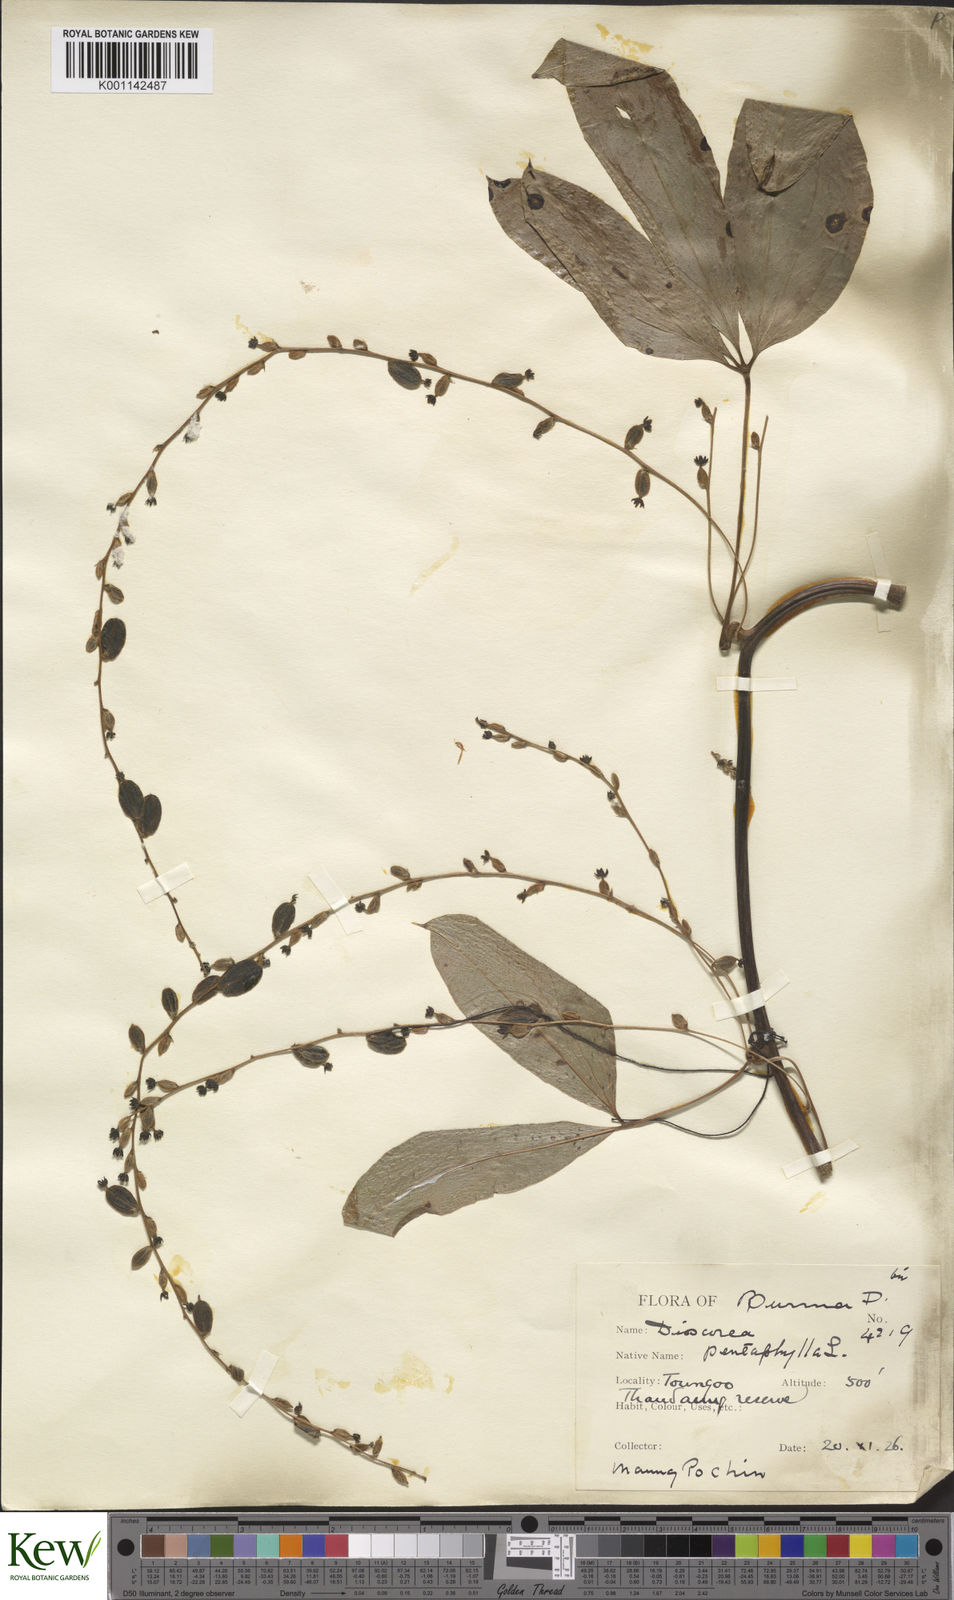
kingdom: Plantae
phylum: Tracheophyta
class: Liliopsida
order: Dioscoreales
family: Dioscoreaceae
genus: Dioscorea
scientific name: Dioscorea pentaphylla
